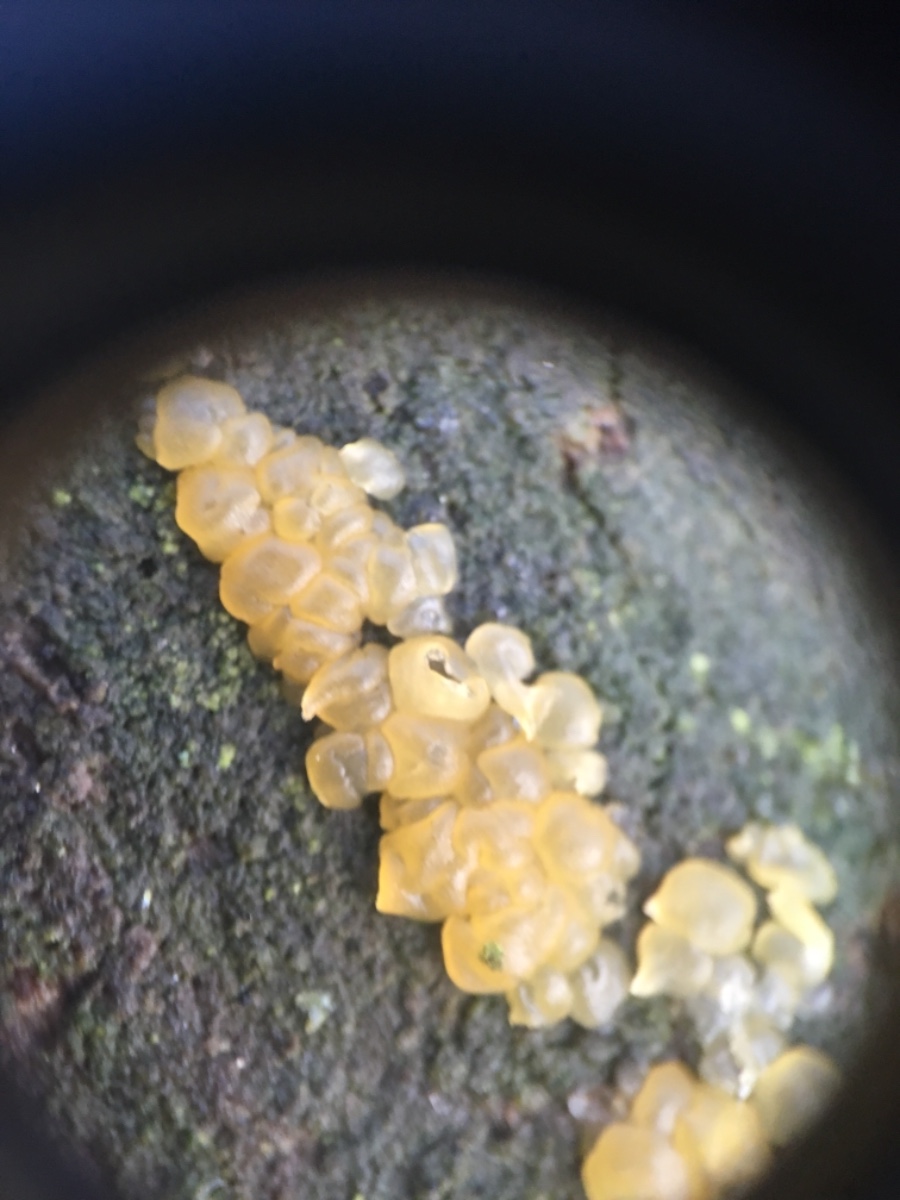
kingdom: Fungi
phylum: Basidiomycota
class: Dacrymycetes
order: Dacrymycetales
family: Dacrymycetaceae
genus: Dacrymyces
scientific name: Dacrymyces
